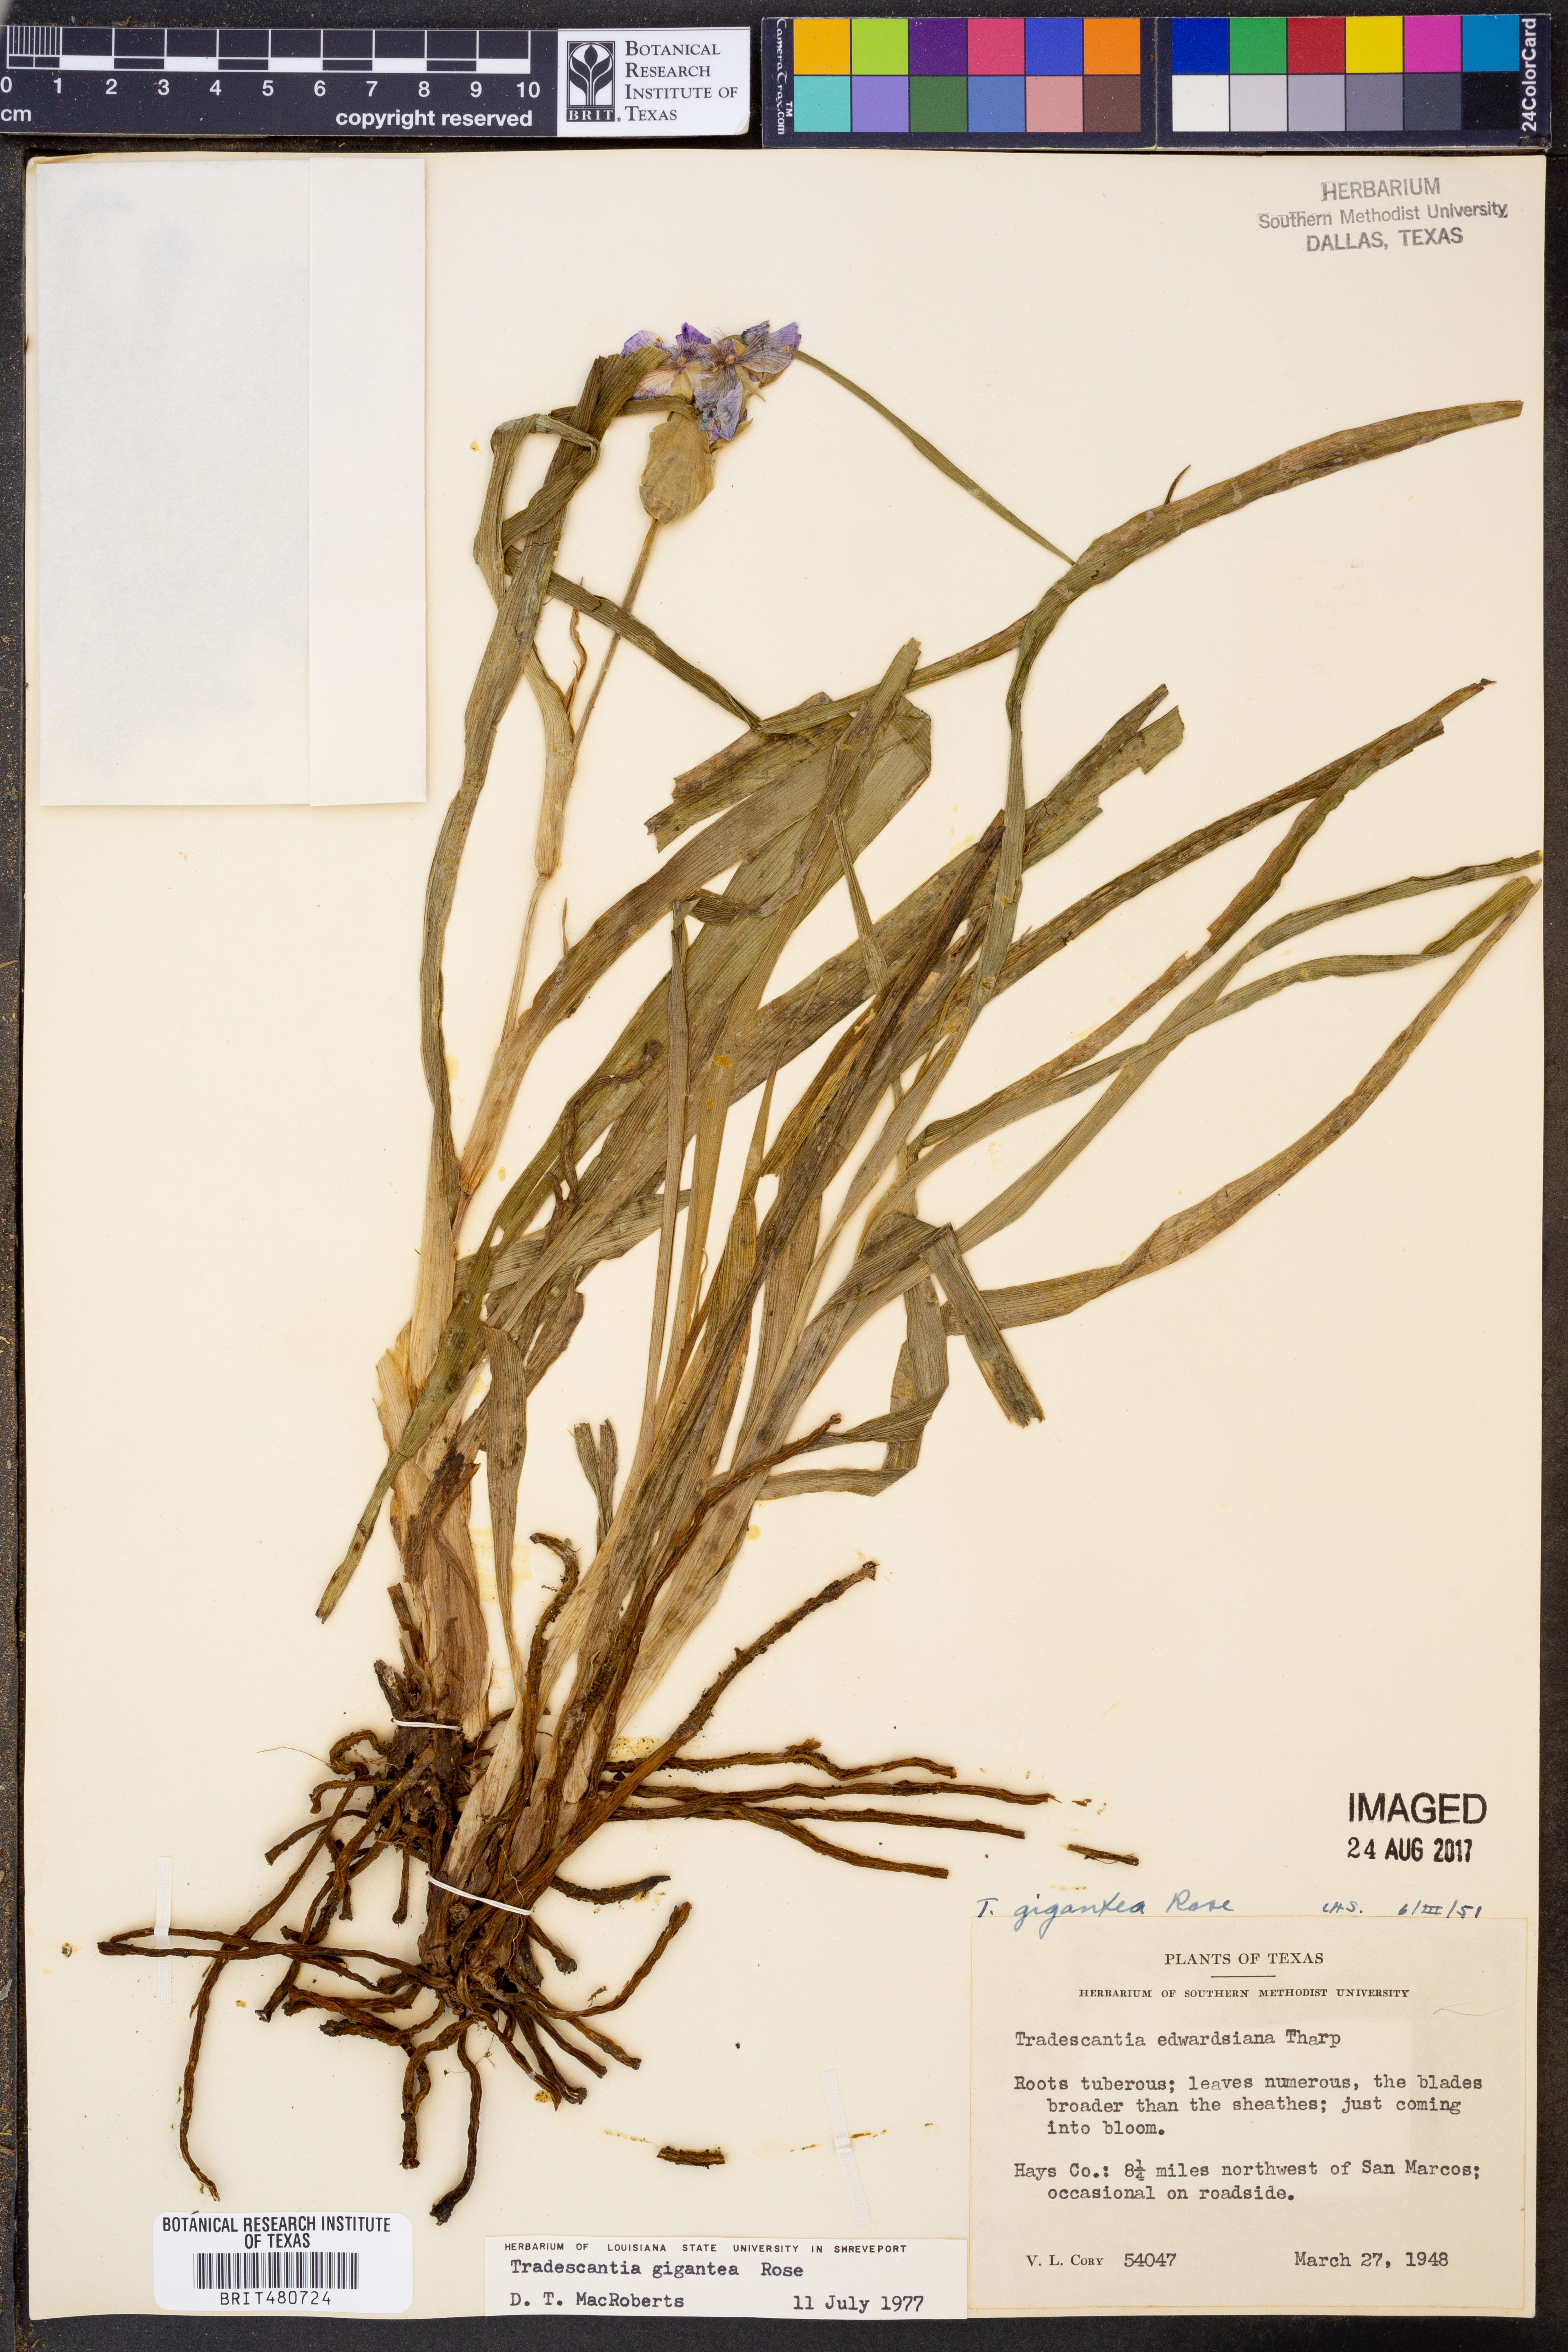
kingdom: Plantae
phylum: Tracheophyta
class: Liliopsida
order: Commelinales
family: Commelinaceae
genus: Tradescantia
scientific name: Tradescantia gigantea
